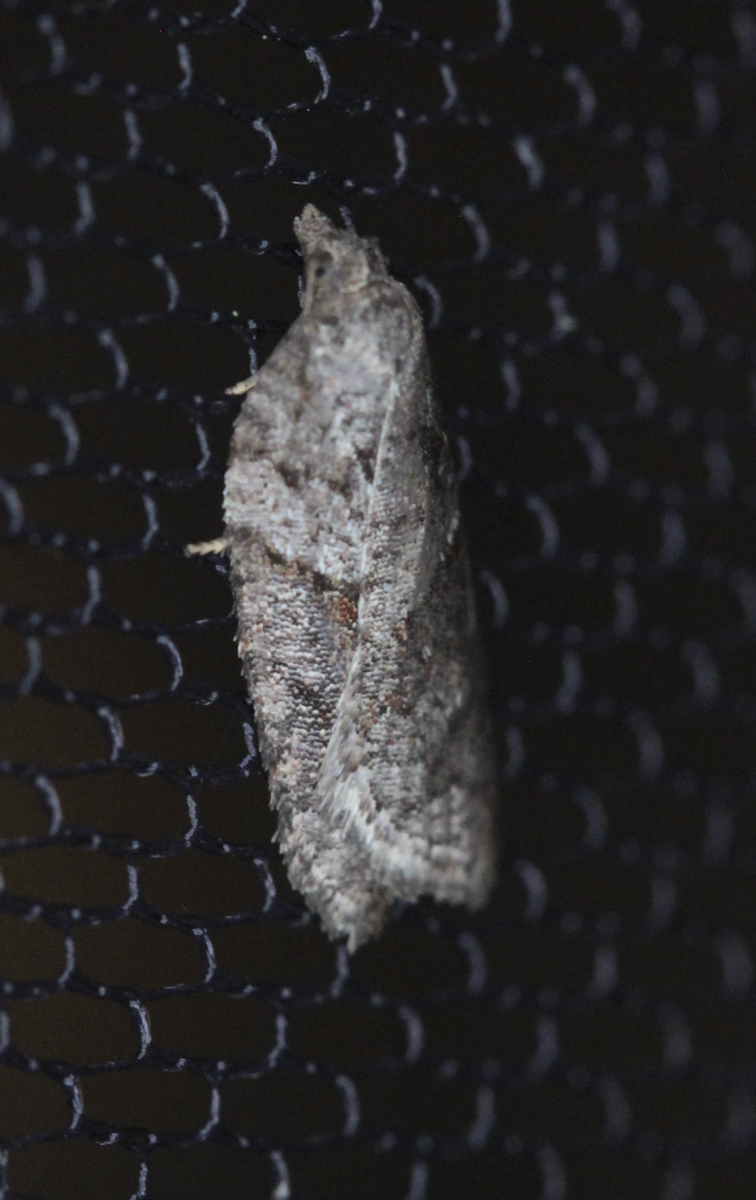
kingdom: Animalia
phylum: Arthropoda
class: Insecta
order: Lepidoptera
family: Tortricidae
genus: Acleris
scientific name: Acleris hastiana
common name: Sallow button
